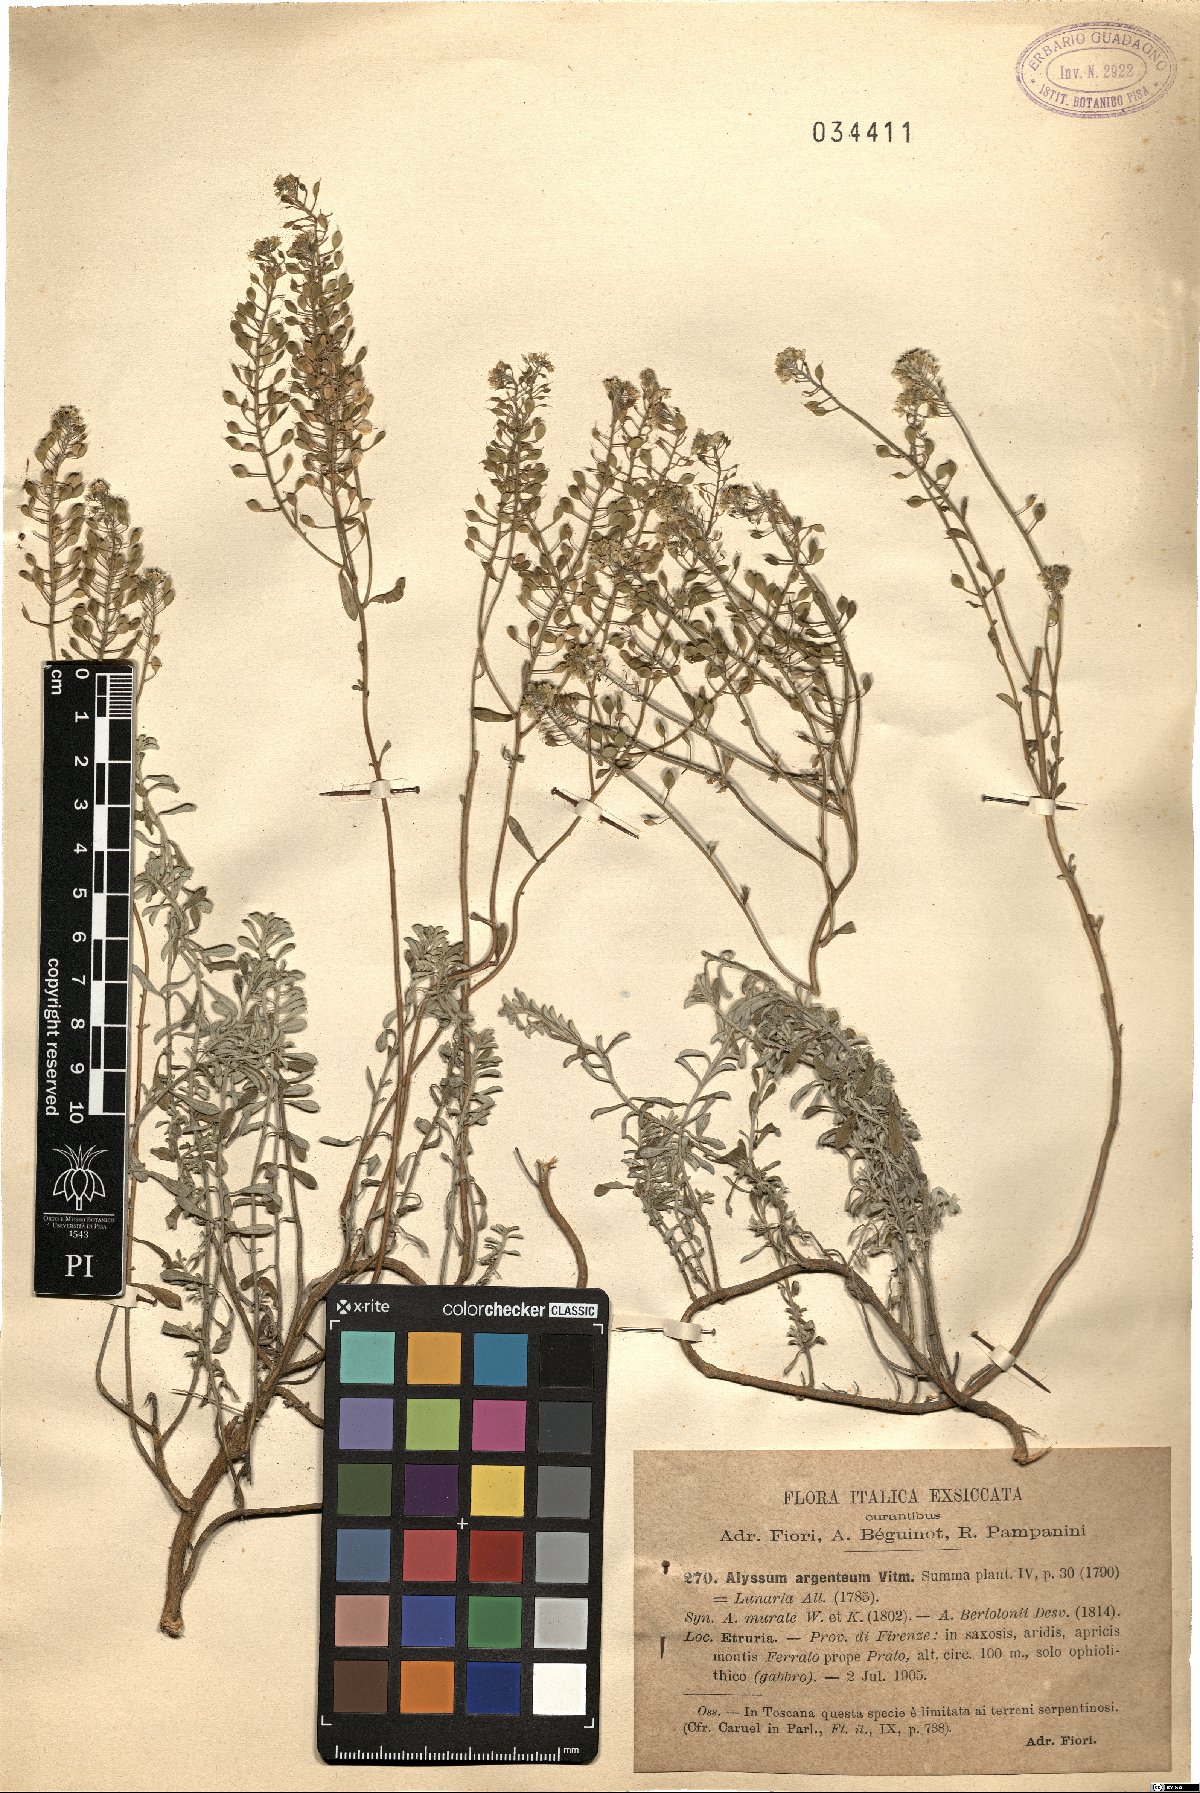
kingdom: Plantae
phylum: Tracheophyta
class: Magnoliopsida
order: Brassicales
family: Brassicaceae
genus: Odontarrhena
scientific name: Odontarrhena argentea
